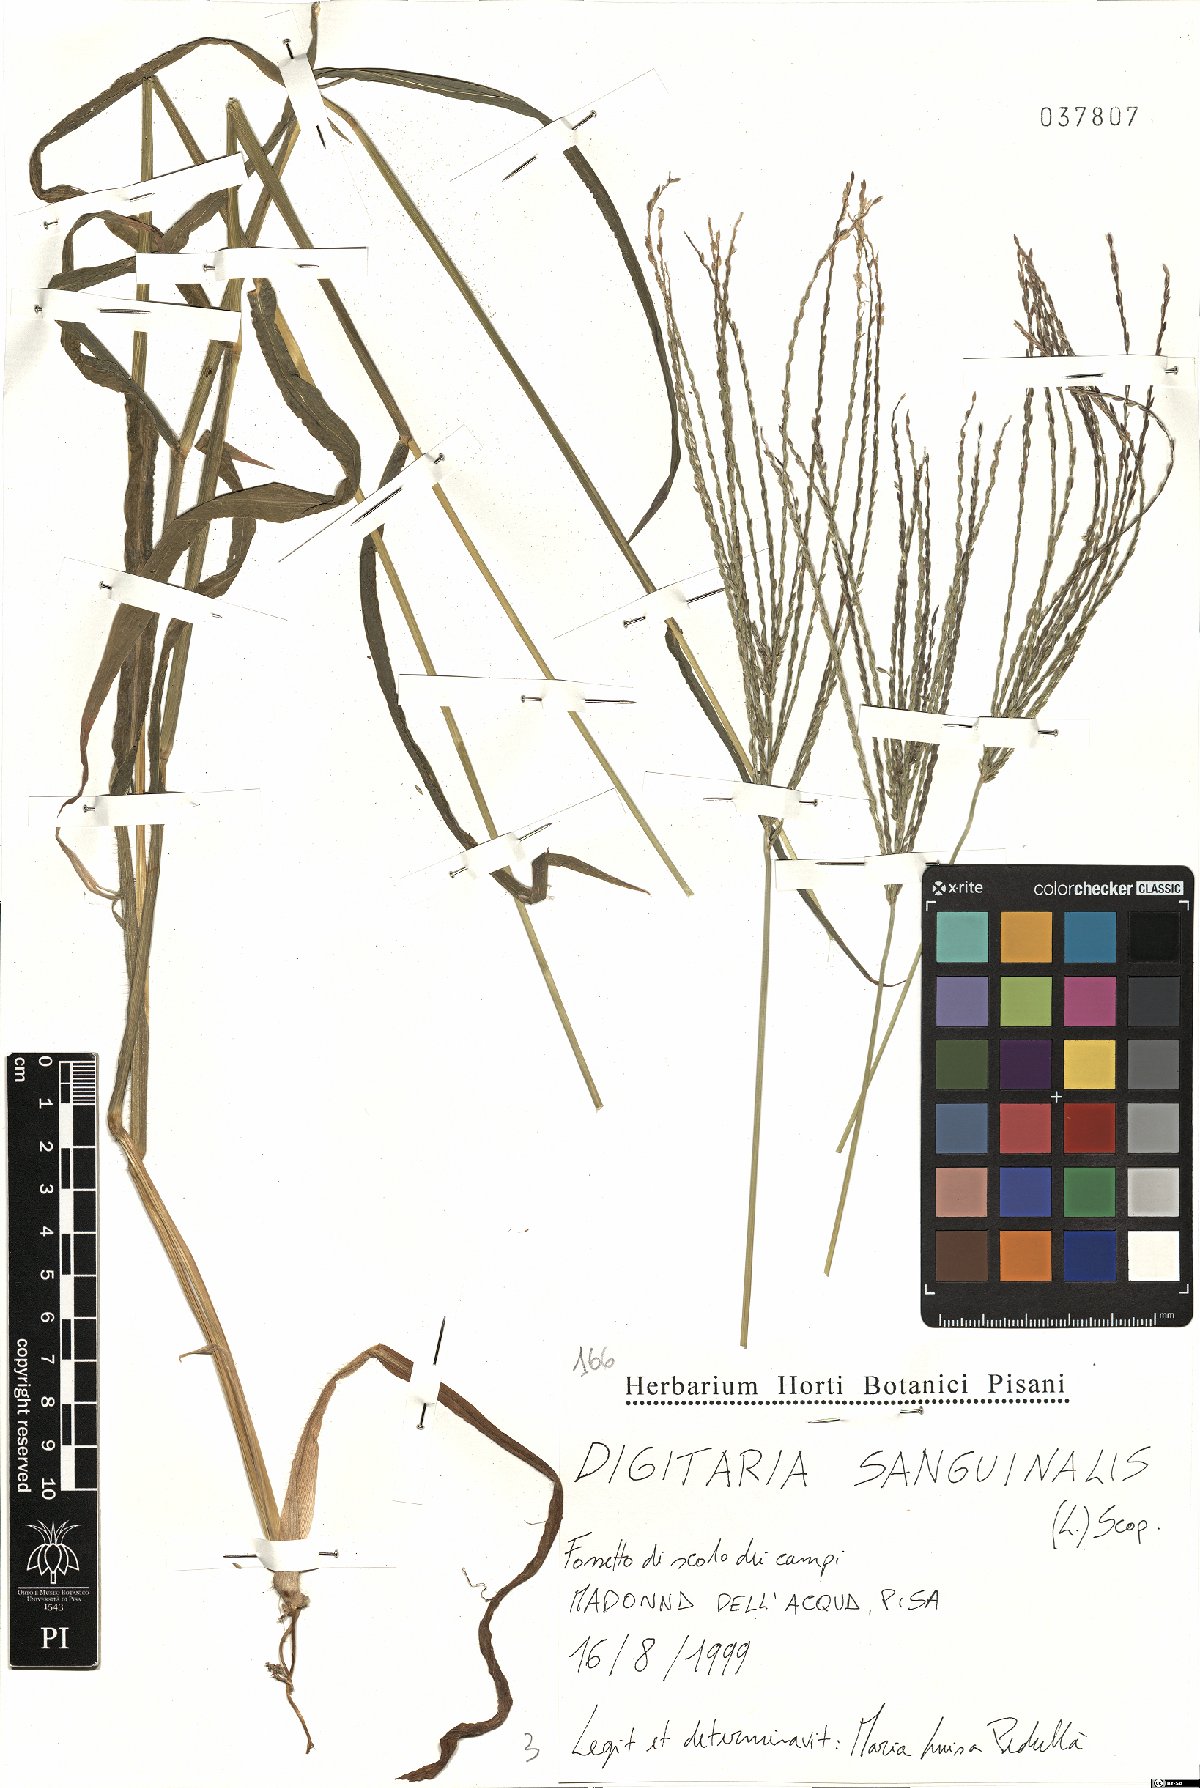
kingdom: Plantae
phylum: Tracheophyta
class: Liliopsida
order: Poales
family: Poaceae
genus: Digitaria
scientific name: Digitaria sanguinalis
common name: Hairy crabgrass
